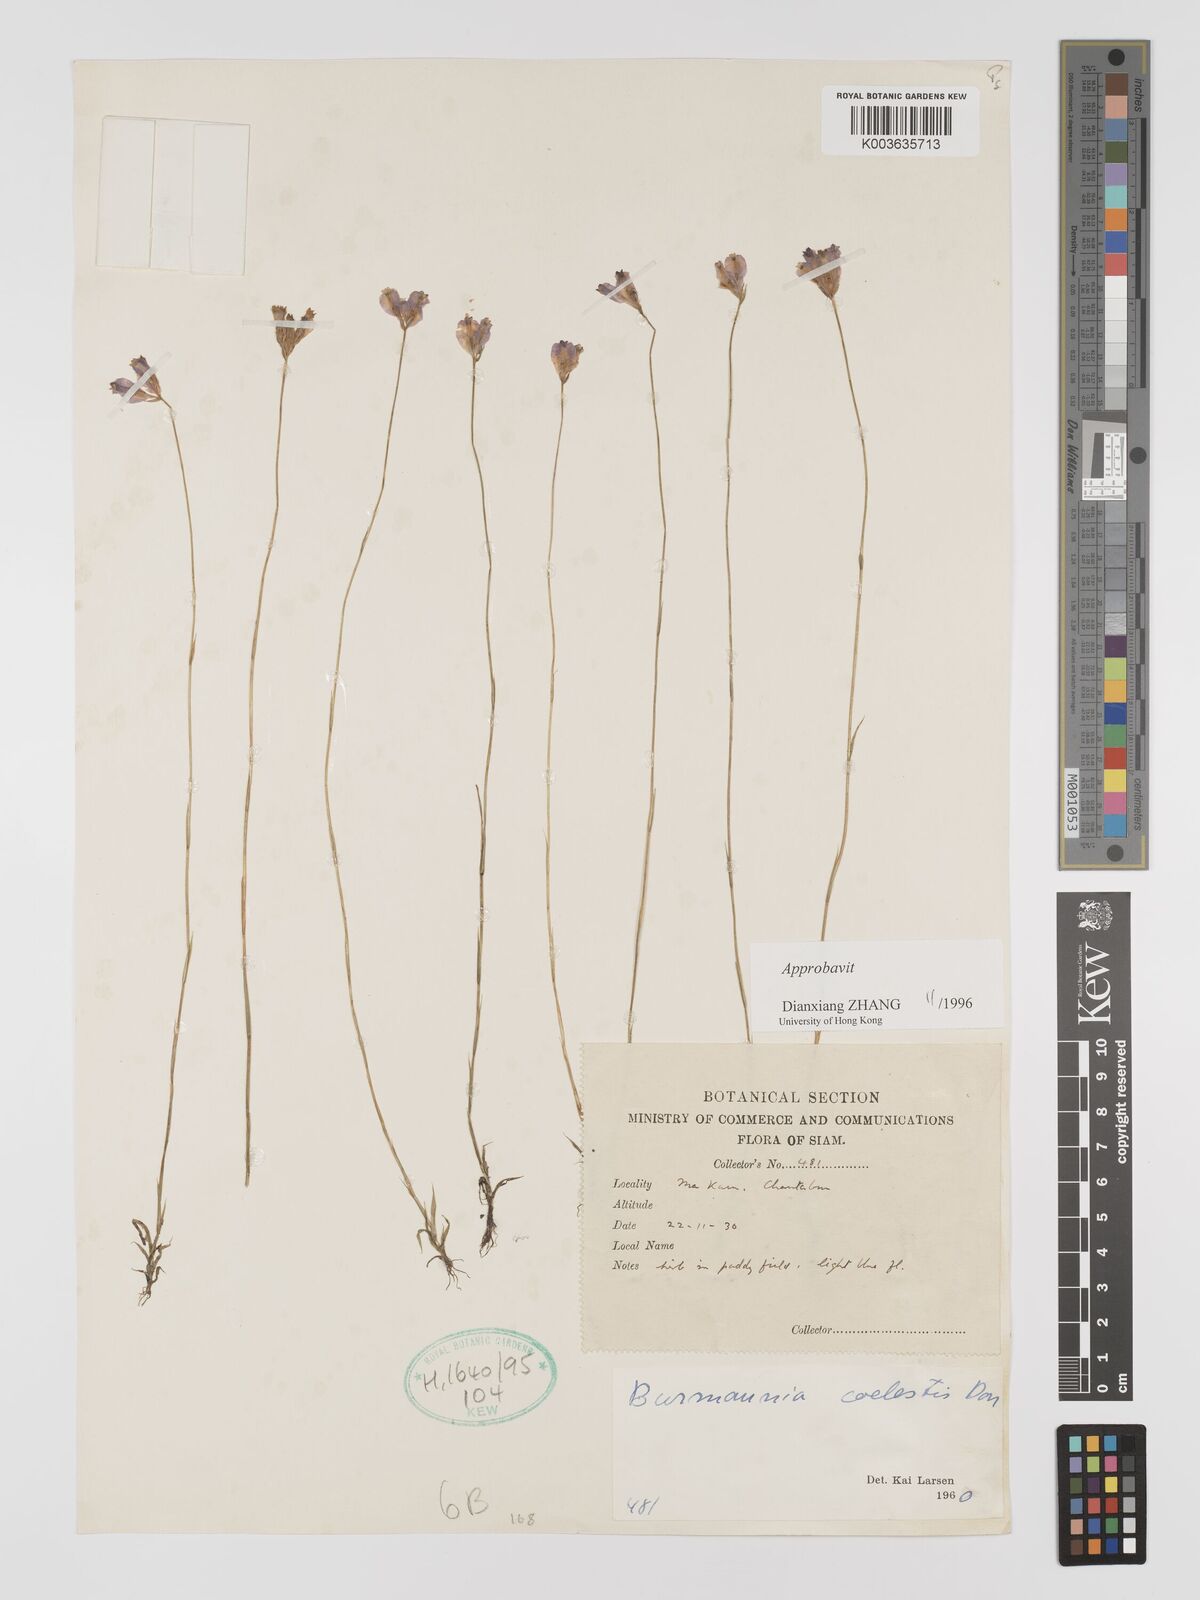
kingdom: Plantae
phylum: Tracheophyta
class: Liliopsida
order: Dioscoreales
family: Burmanniaceae
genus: Burmannia
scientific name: Burmannia coelestis
